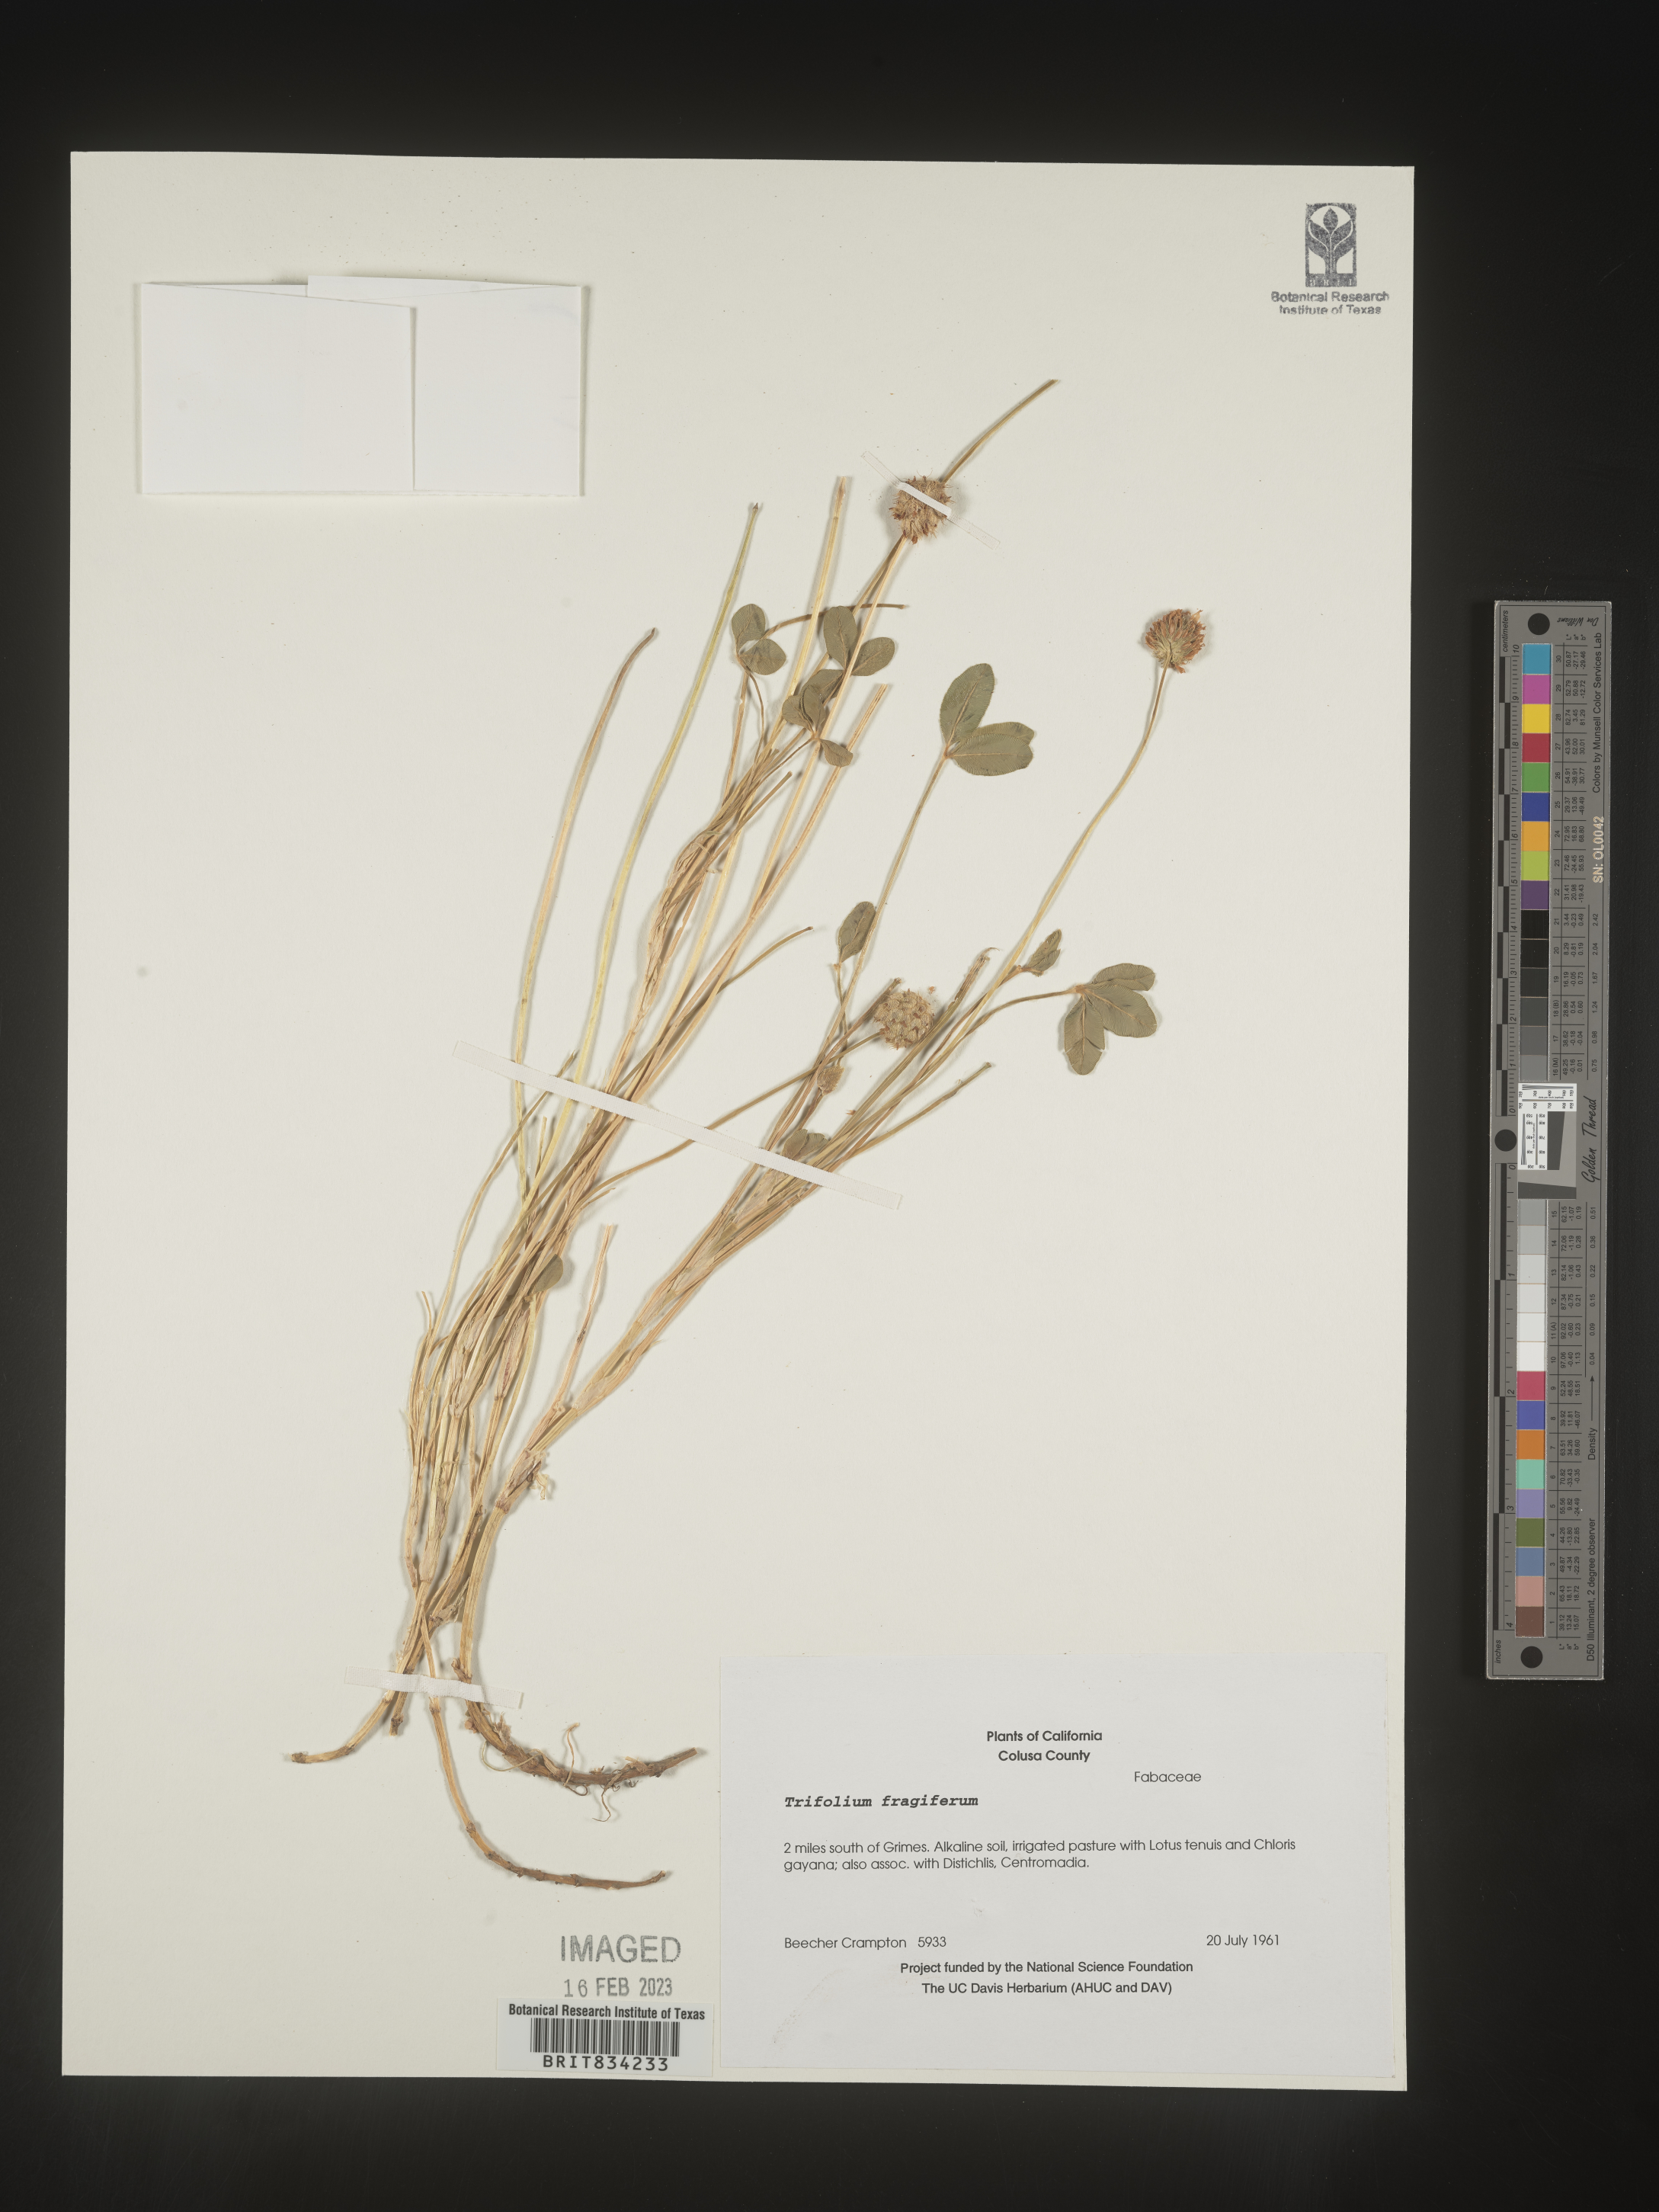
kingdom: Plantae
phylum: Tracheophyta
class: Magnoliopsida
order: Fabales
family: Fabaceae
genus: Trifolium
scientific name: Trifolium
